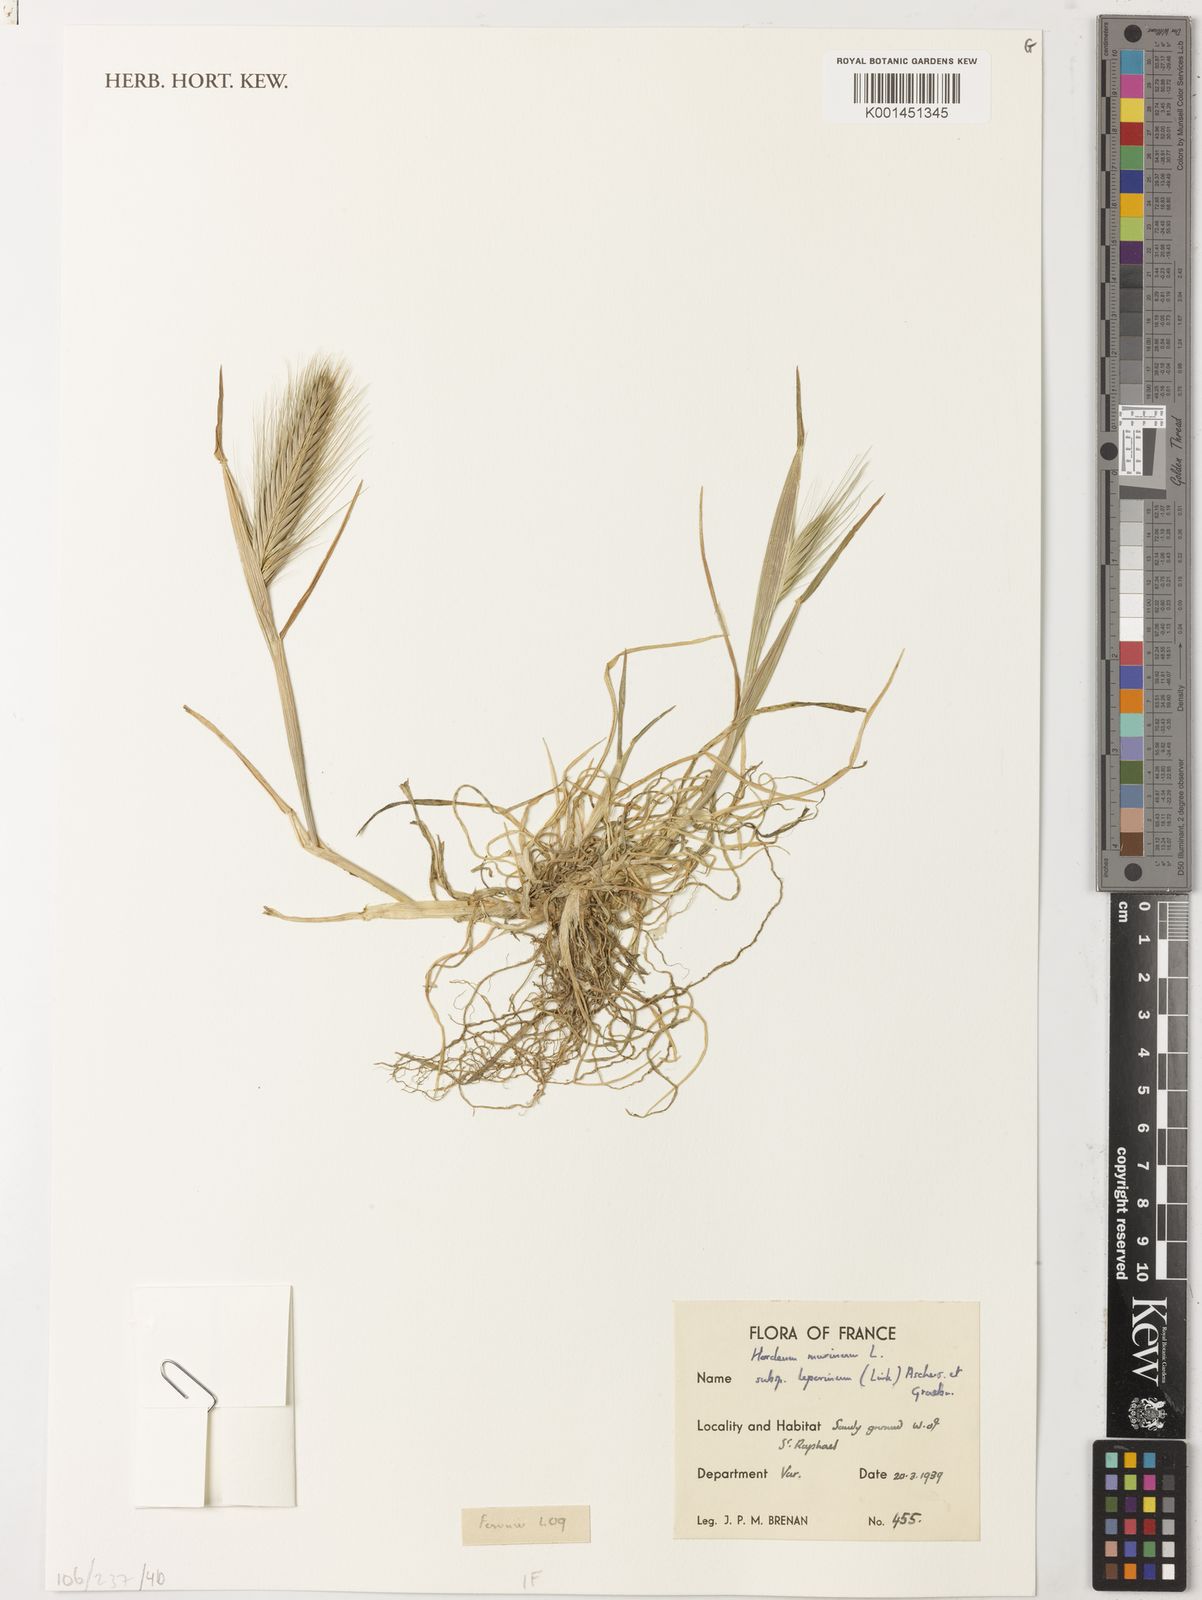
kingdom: Plantae
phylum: Tracheophyta
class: Liliopsida
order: Poales
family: Poaceae
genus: Hordeum
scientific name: Hordeum murinum
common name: Wall barley
